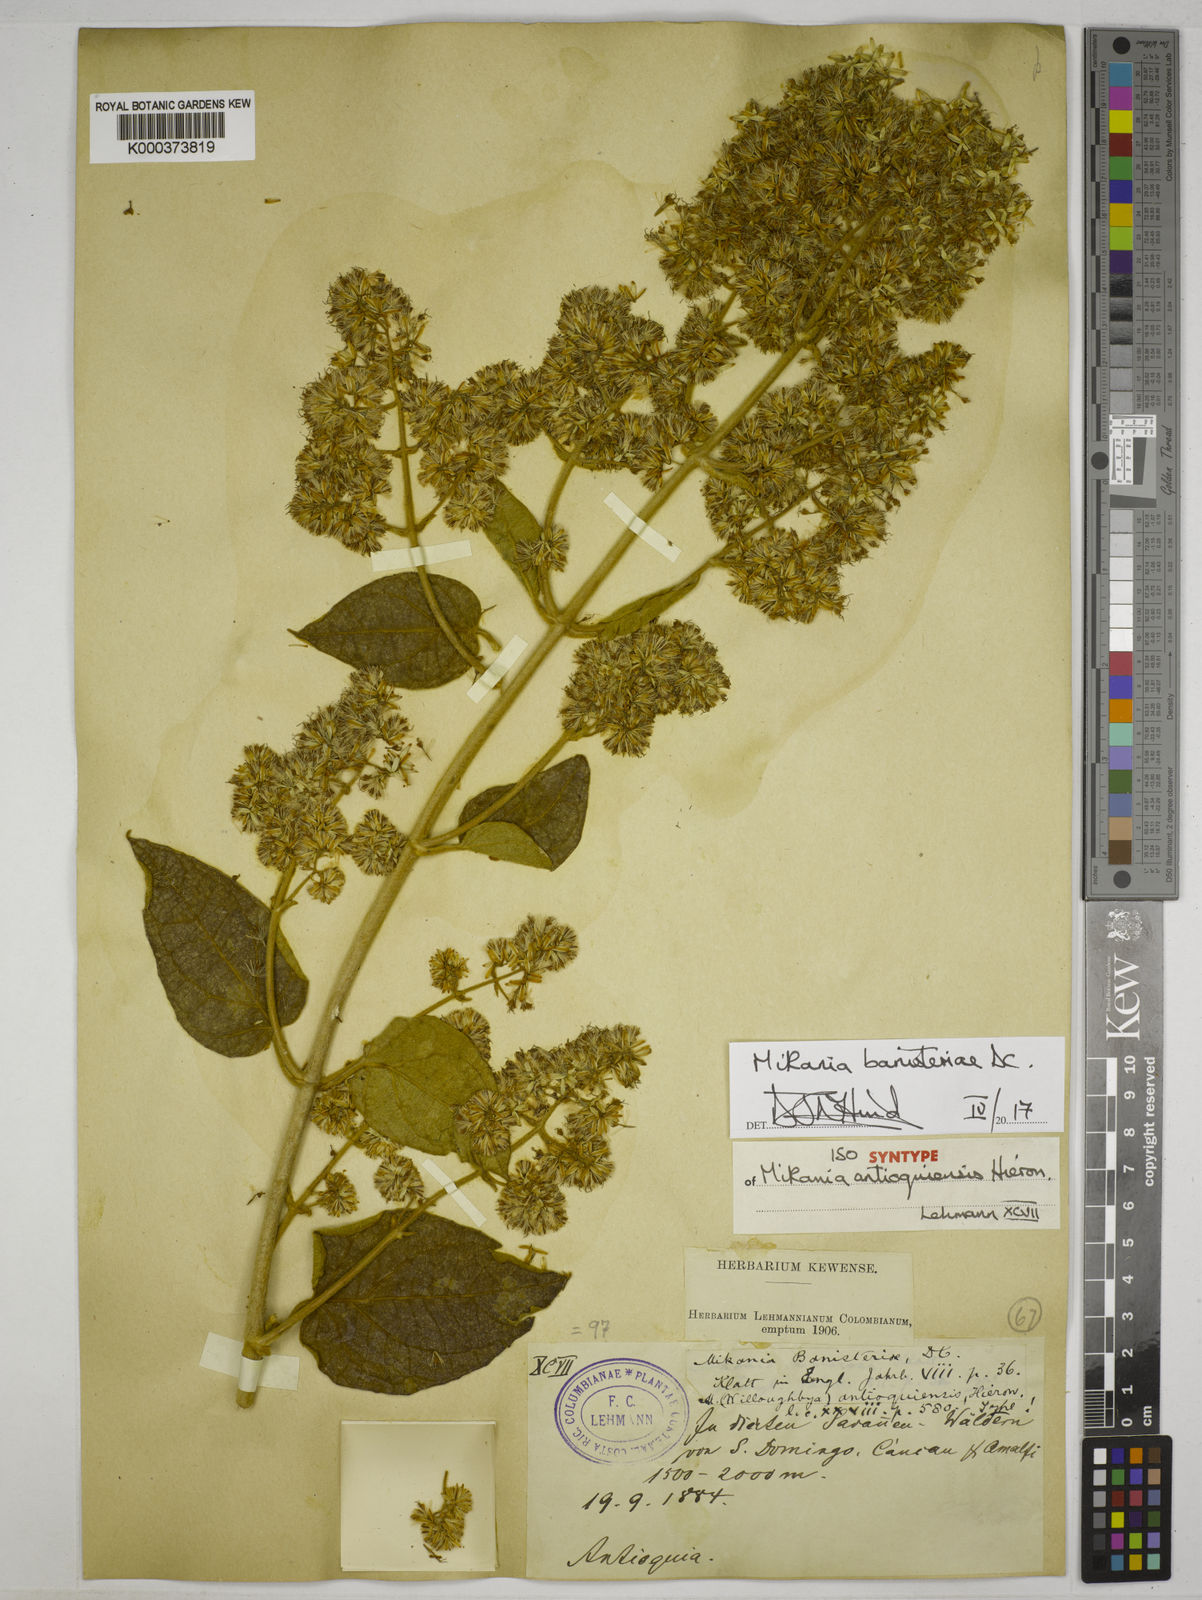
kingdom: Plantae
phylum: Tracheophyta
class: Magnoliopsida
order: Asterales
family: Asteraceae
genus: Mikania
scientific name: Mikania banisteriae
